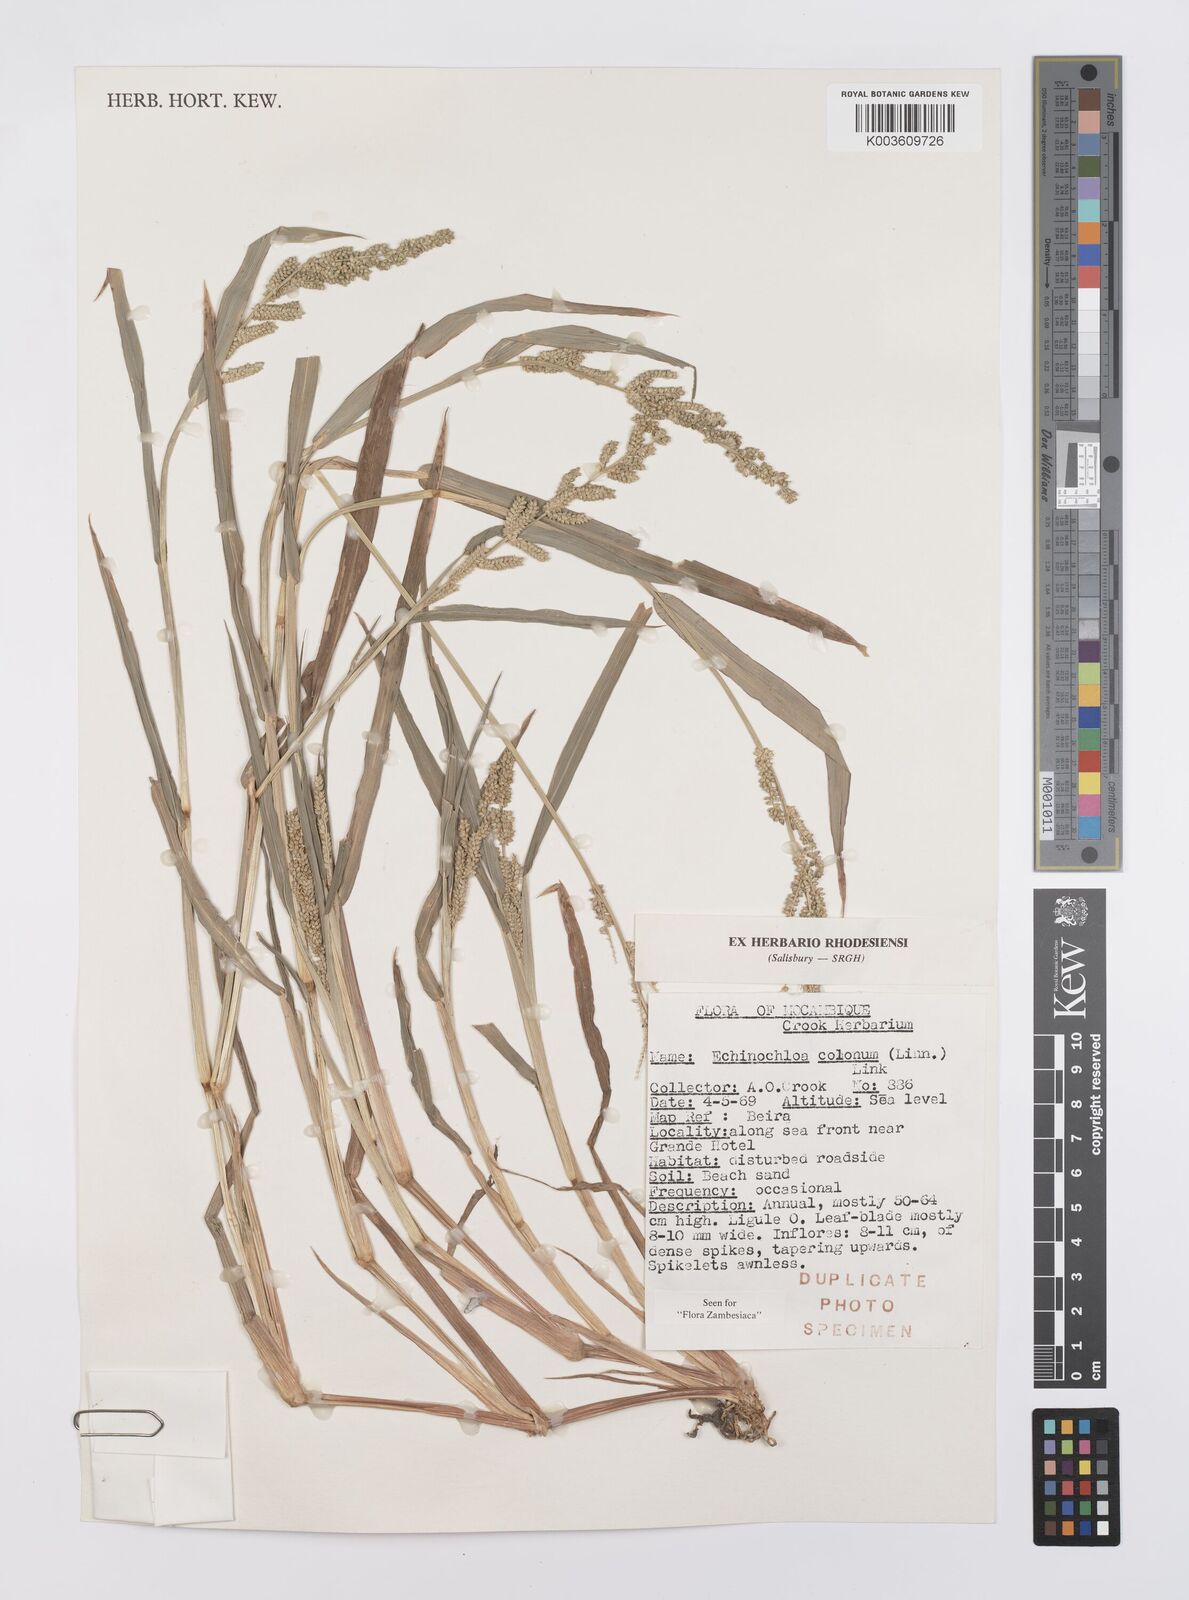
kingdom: Plantae
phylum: Tracheophyta
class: Liliopsida
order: Poales
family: Poaceae
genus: Echinochloa
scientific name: Echinochloa colonum
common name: Jungle rice
